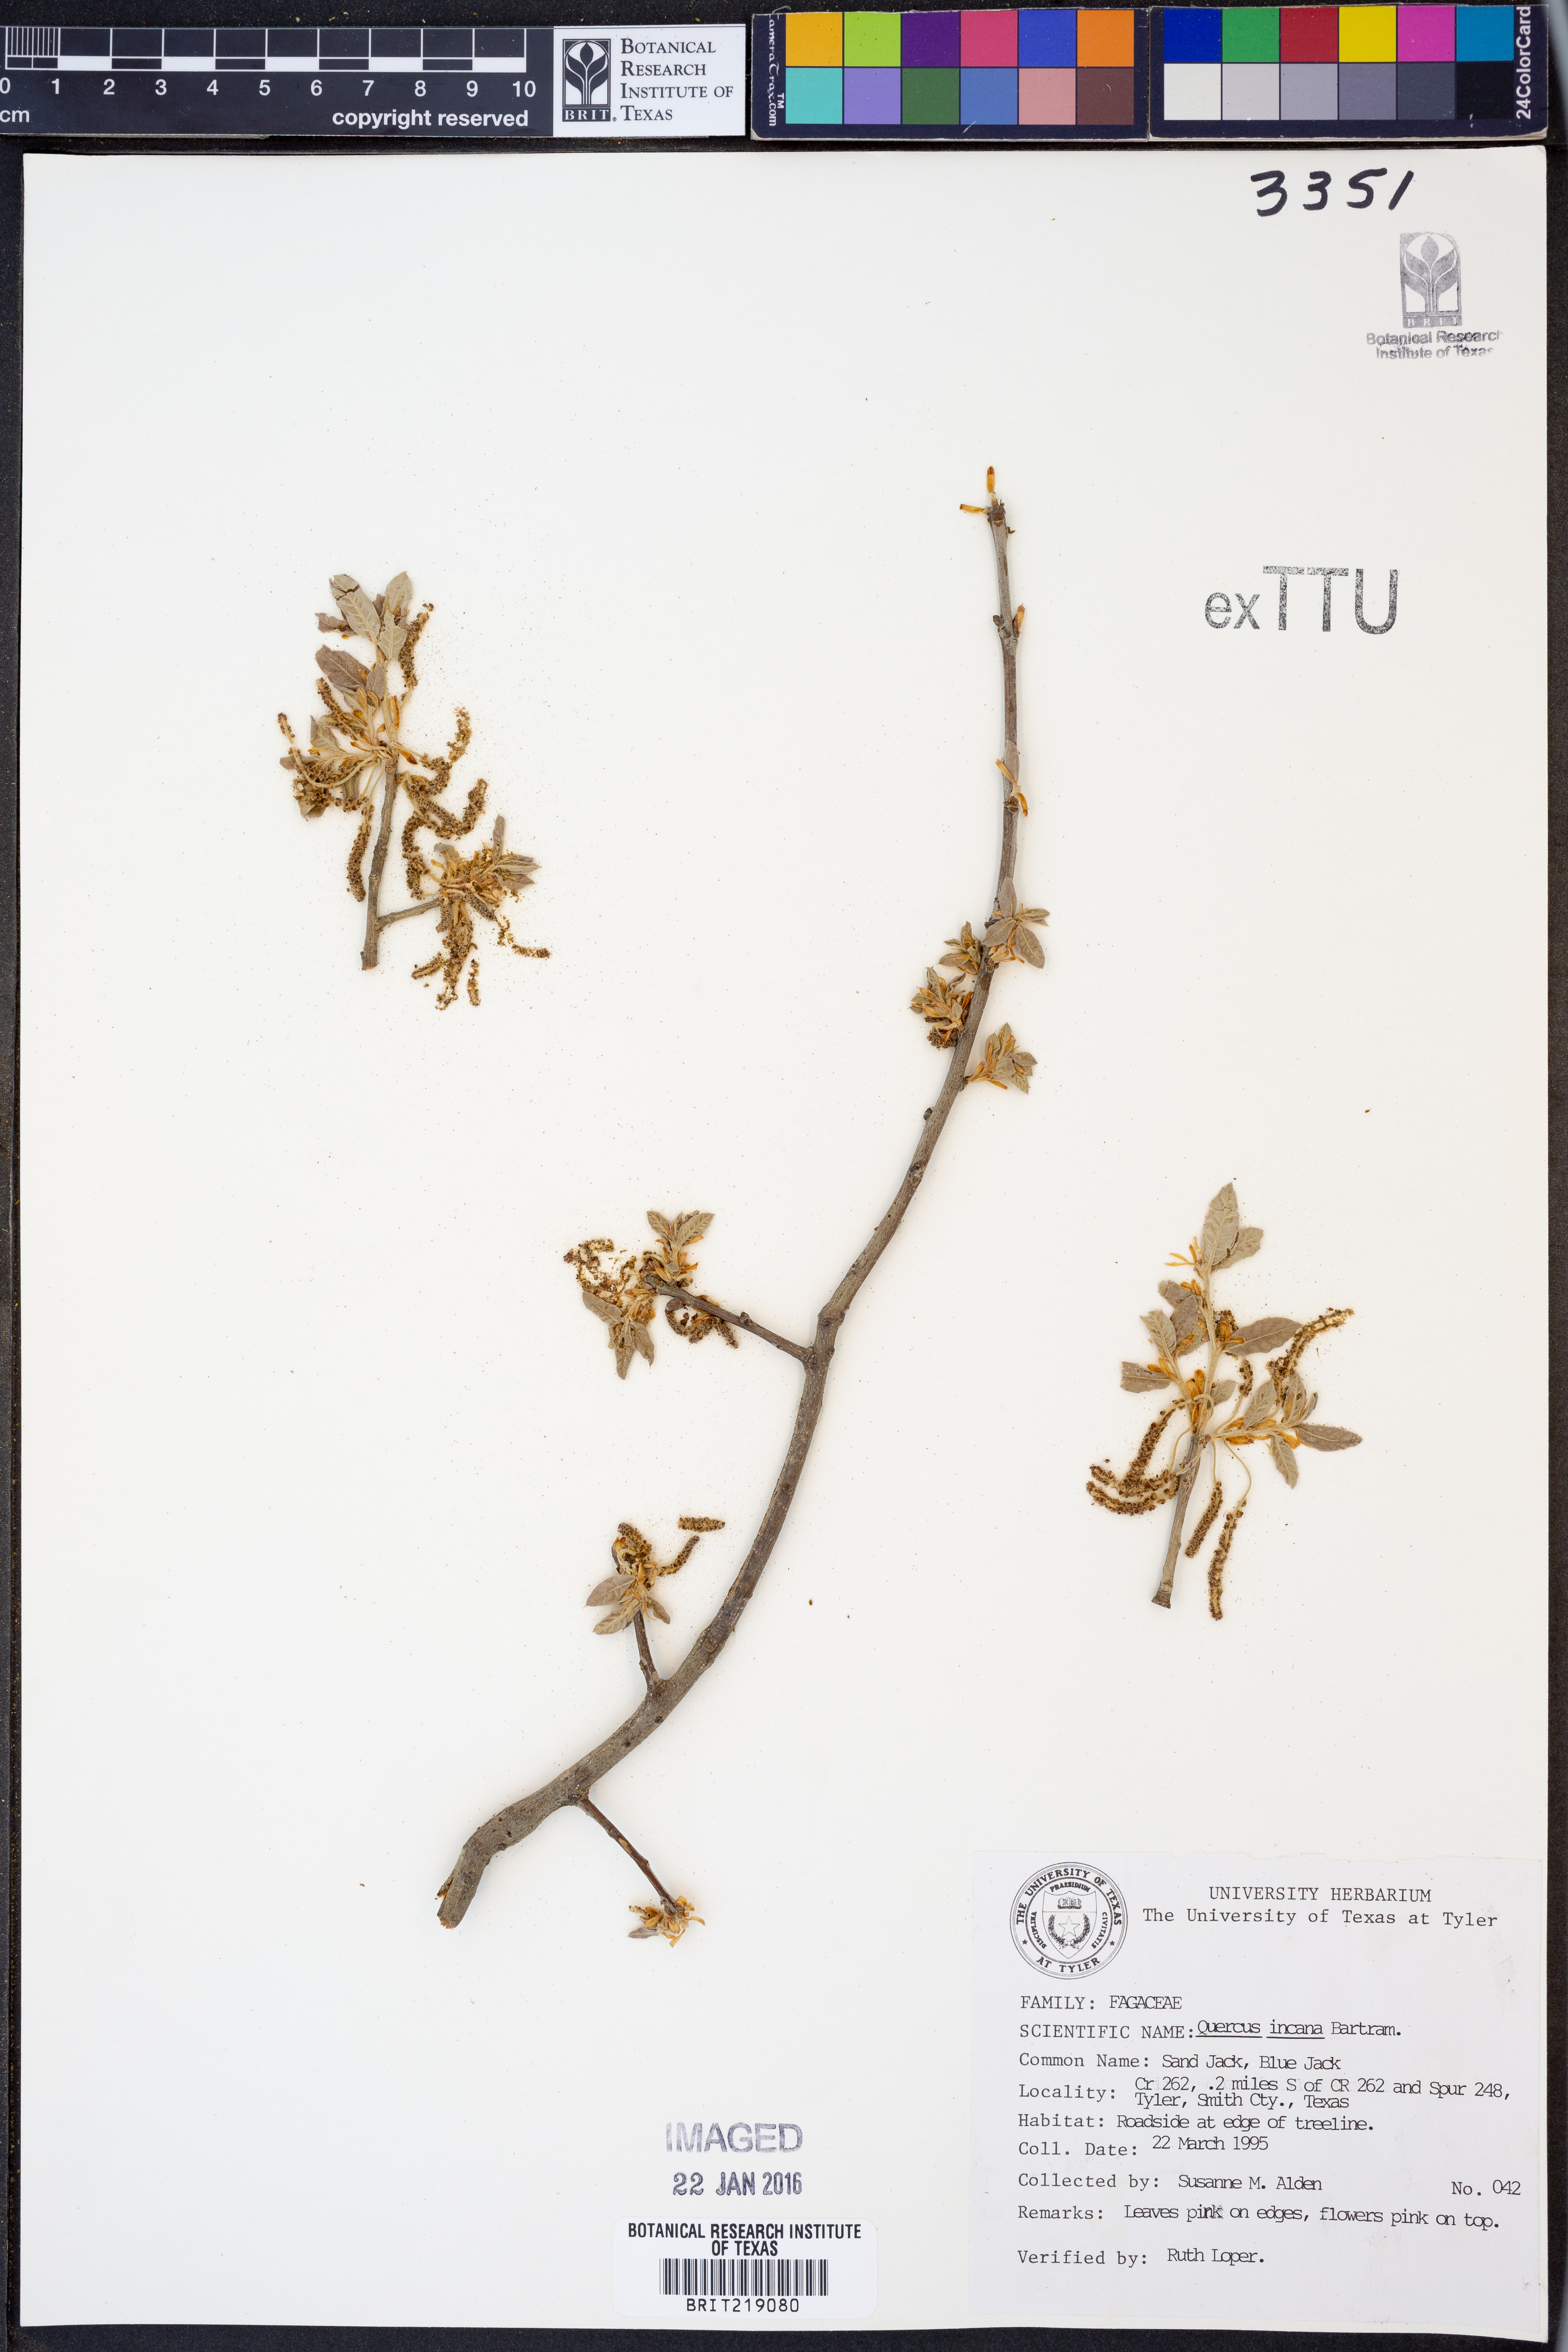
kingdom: Plantae
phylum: Tracheophyta
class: Magnoliopsida
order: Fagales
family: Fagaceae
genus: Quercus
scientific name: Quercus incana
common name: Bluejack oak
